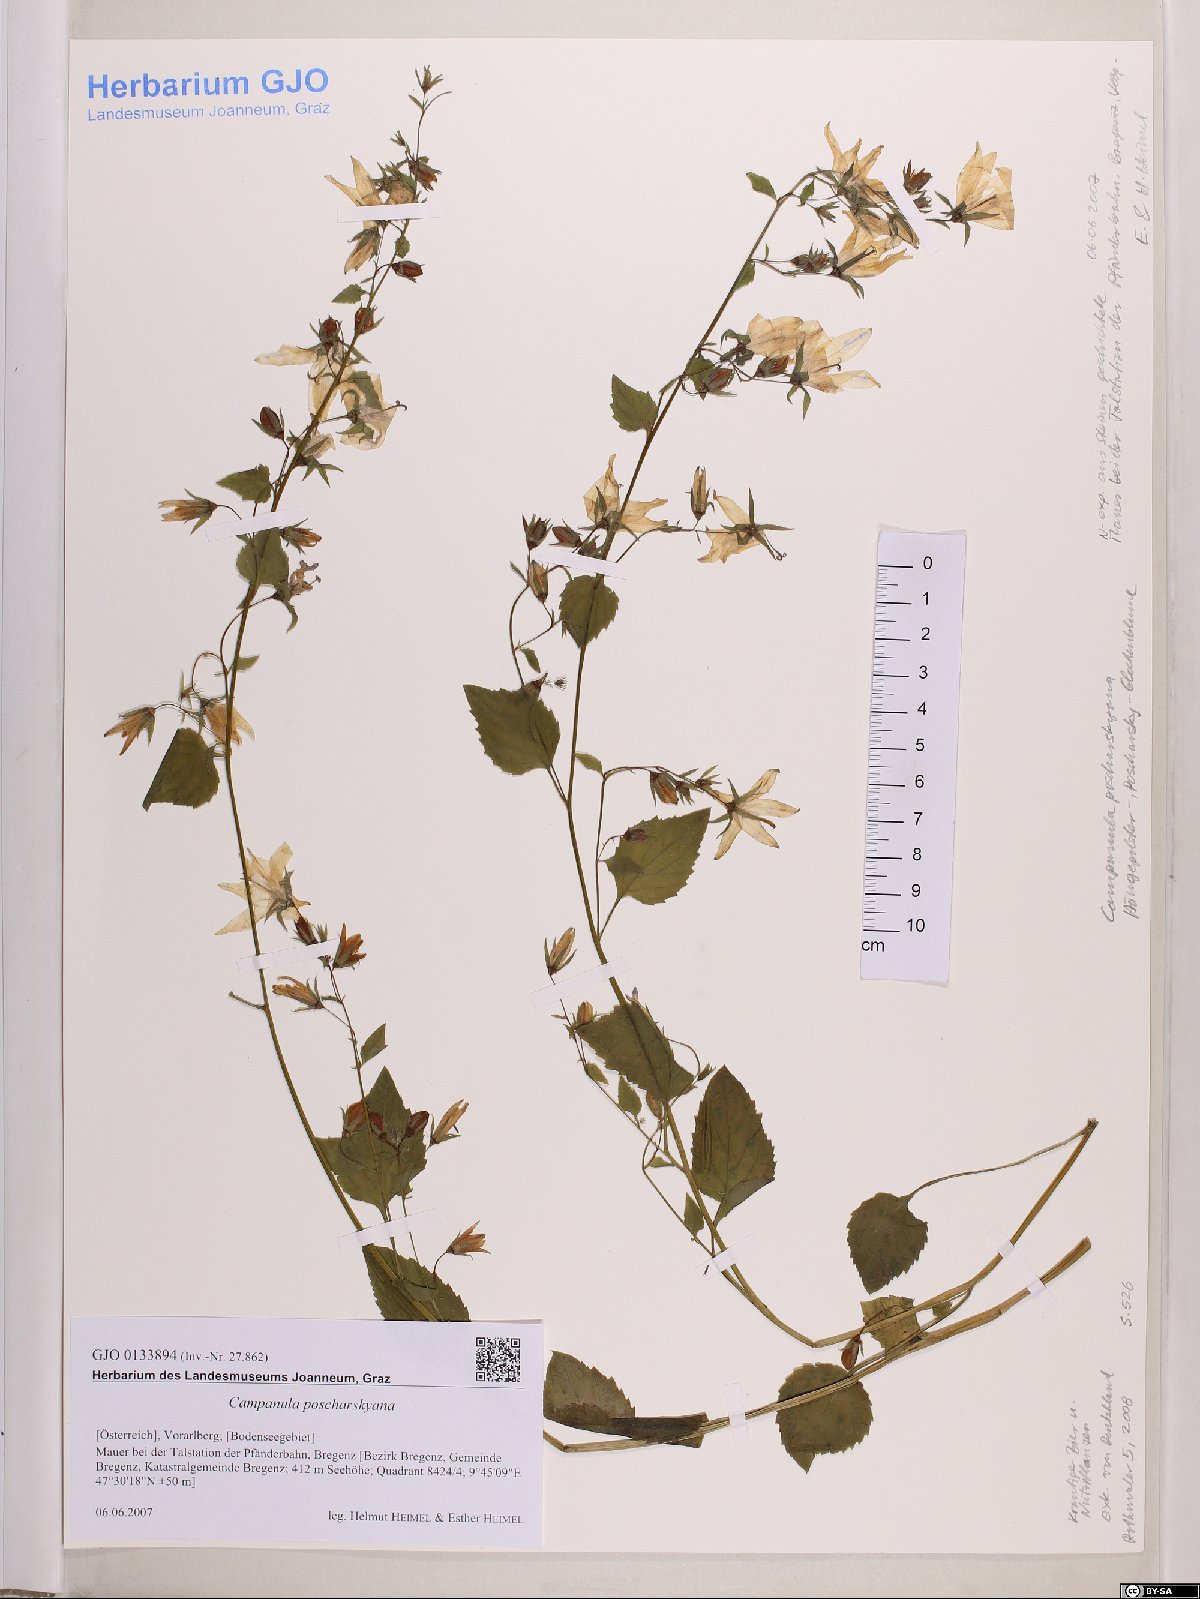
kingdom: Plantae
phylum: Tracheophyta
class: Magnoliopsida
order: Asterales
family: Campanulaceae
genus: Campanula
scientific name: Campanula poscharskyana
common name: Trailing bellflower
